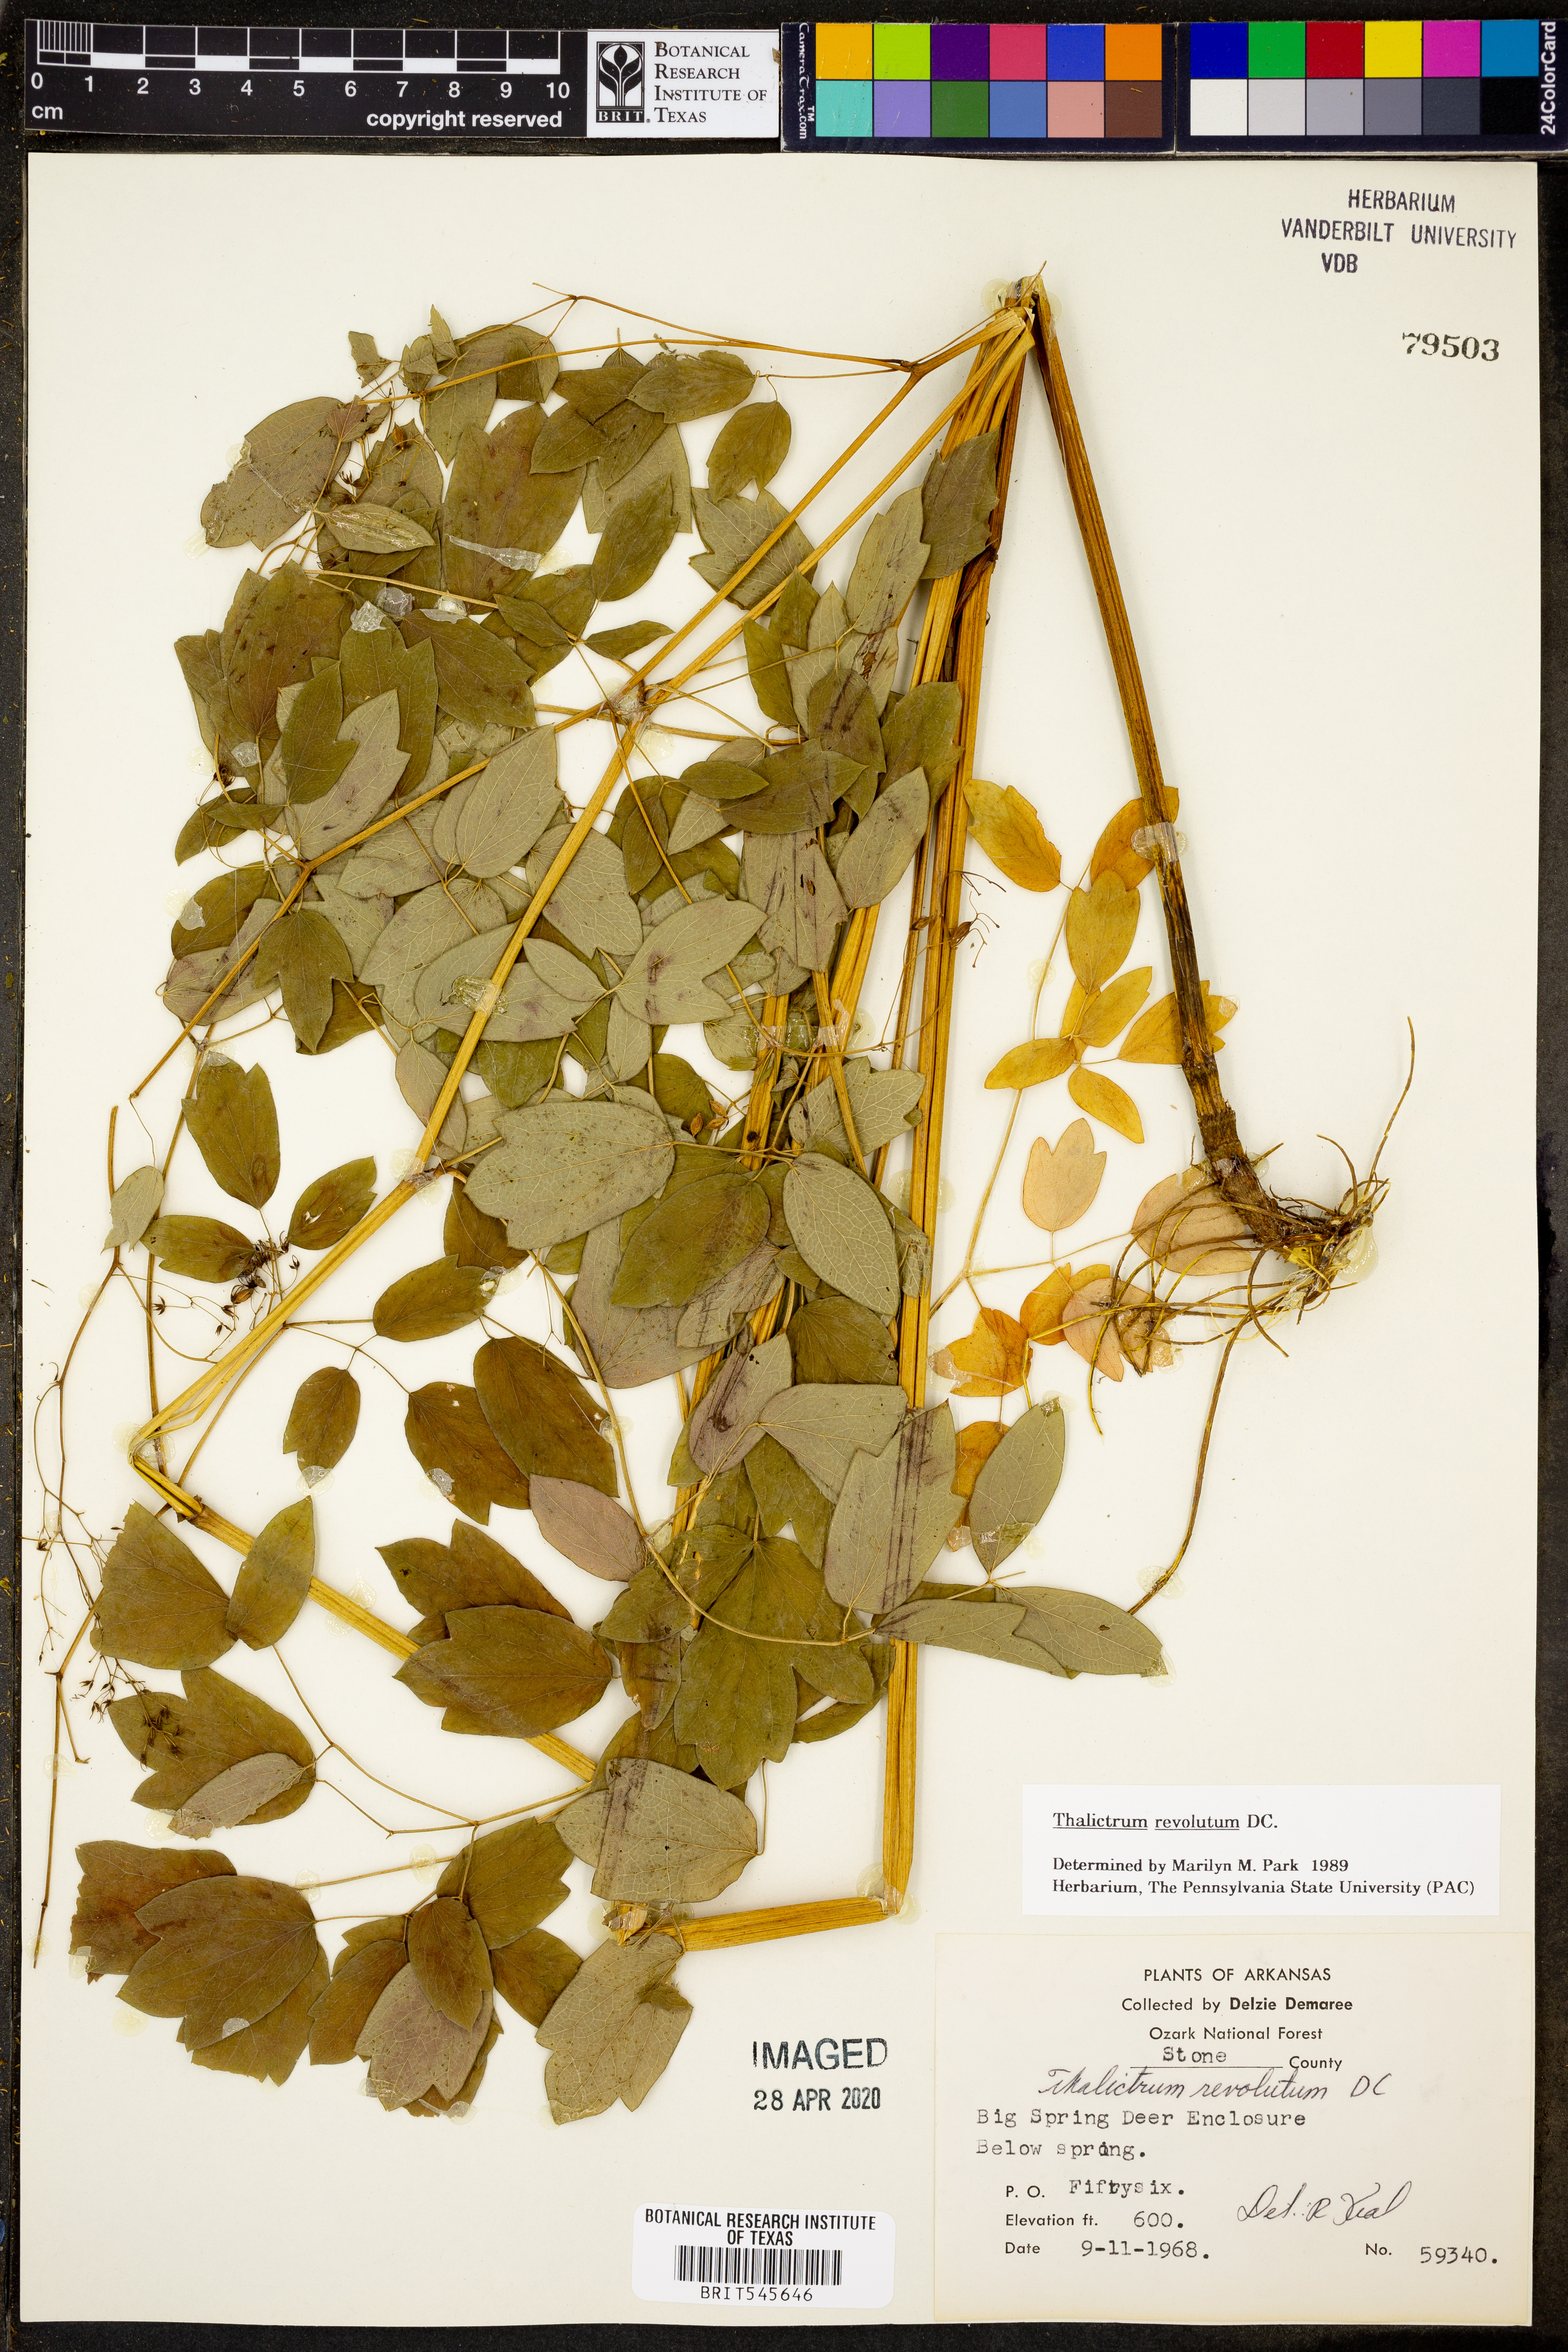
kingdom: Plantae
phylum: Tracheophyta
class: Magnoliopsida
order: Ranunculales
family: Ranunculaceae
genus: Thalictrum
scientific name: Thalictrum revolutum
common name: Waxy meadow-rue
